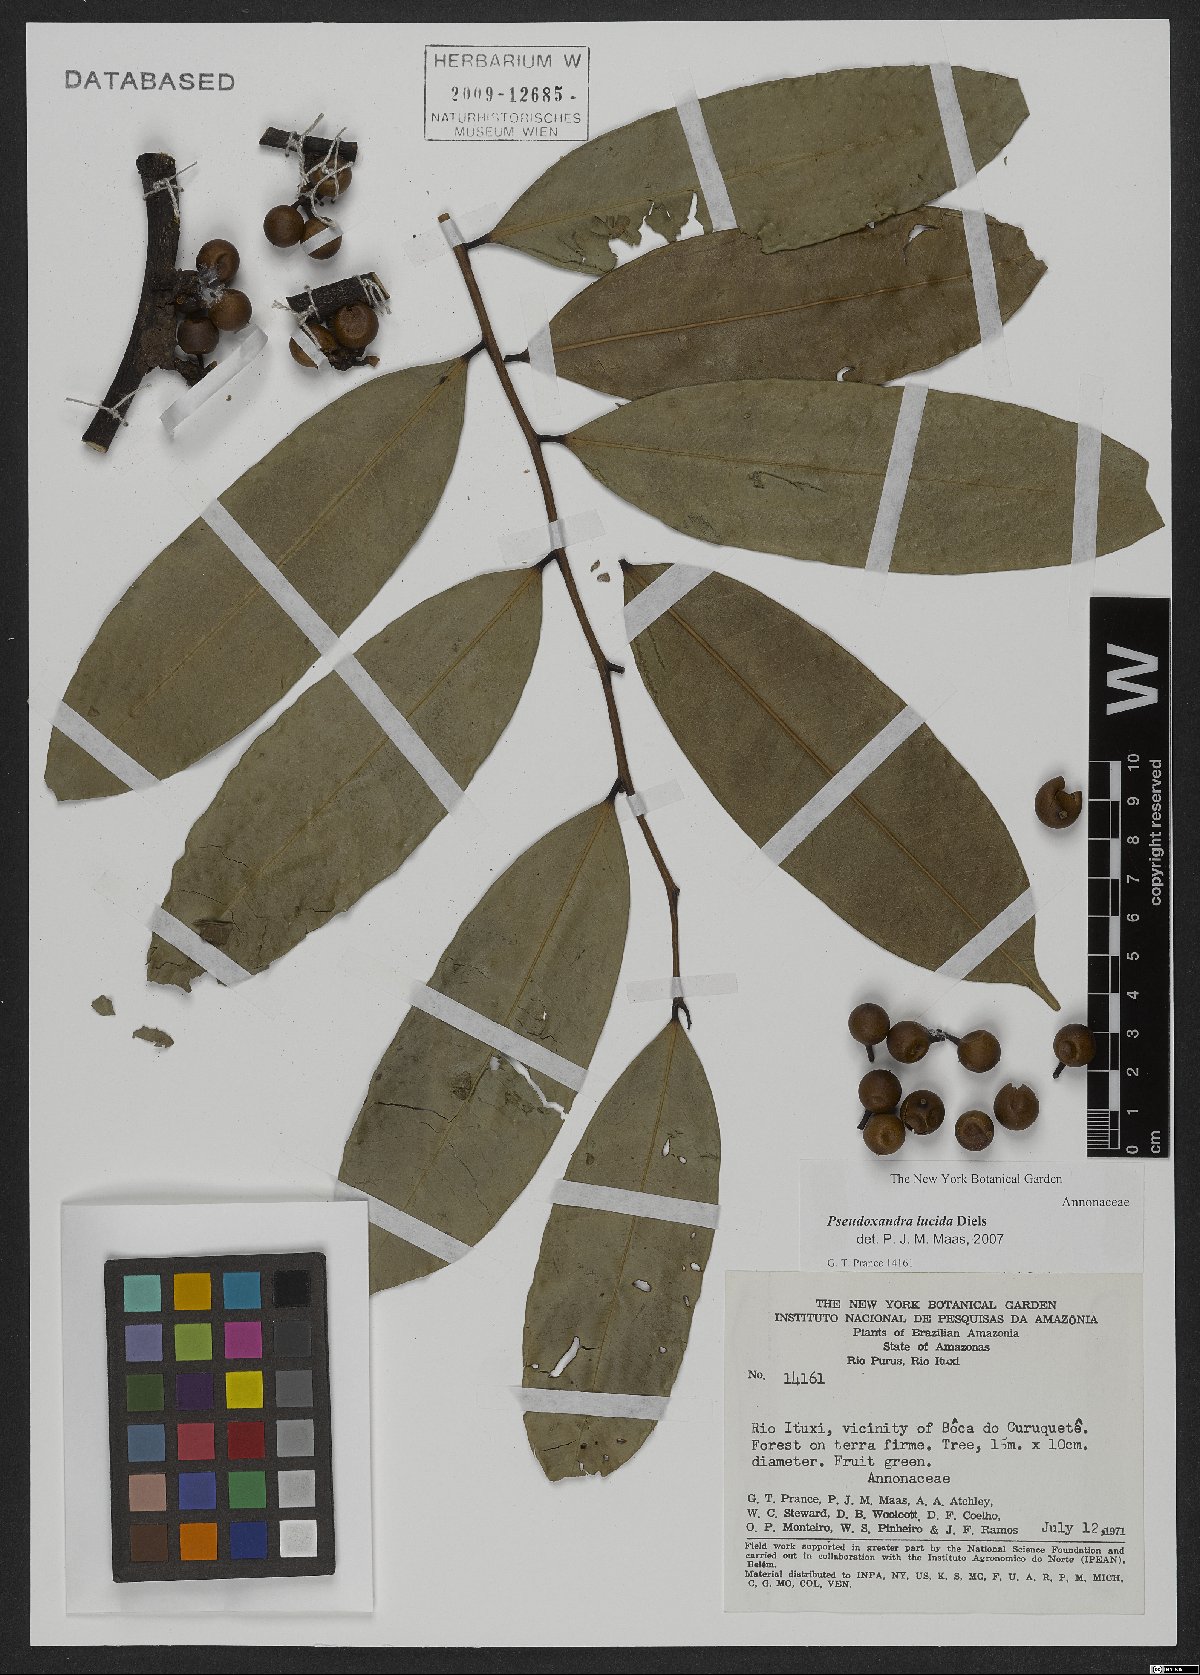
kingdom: Plantae
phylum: Tracheophyta
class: Magnoliopsida
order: Magnoliales
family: Annonaceae
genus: Pseudoxandra
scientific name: Pseudoxandra lucida
